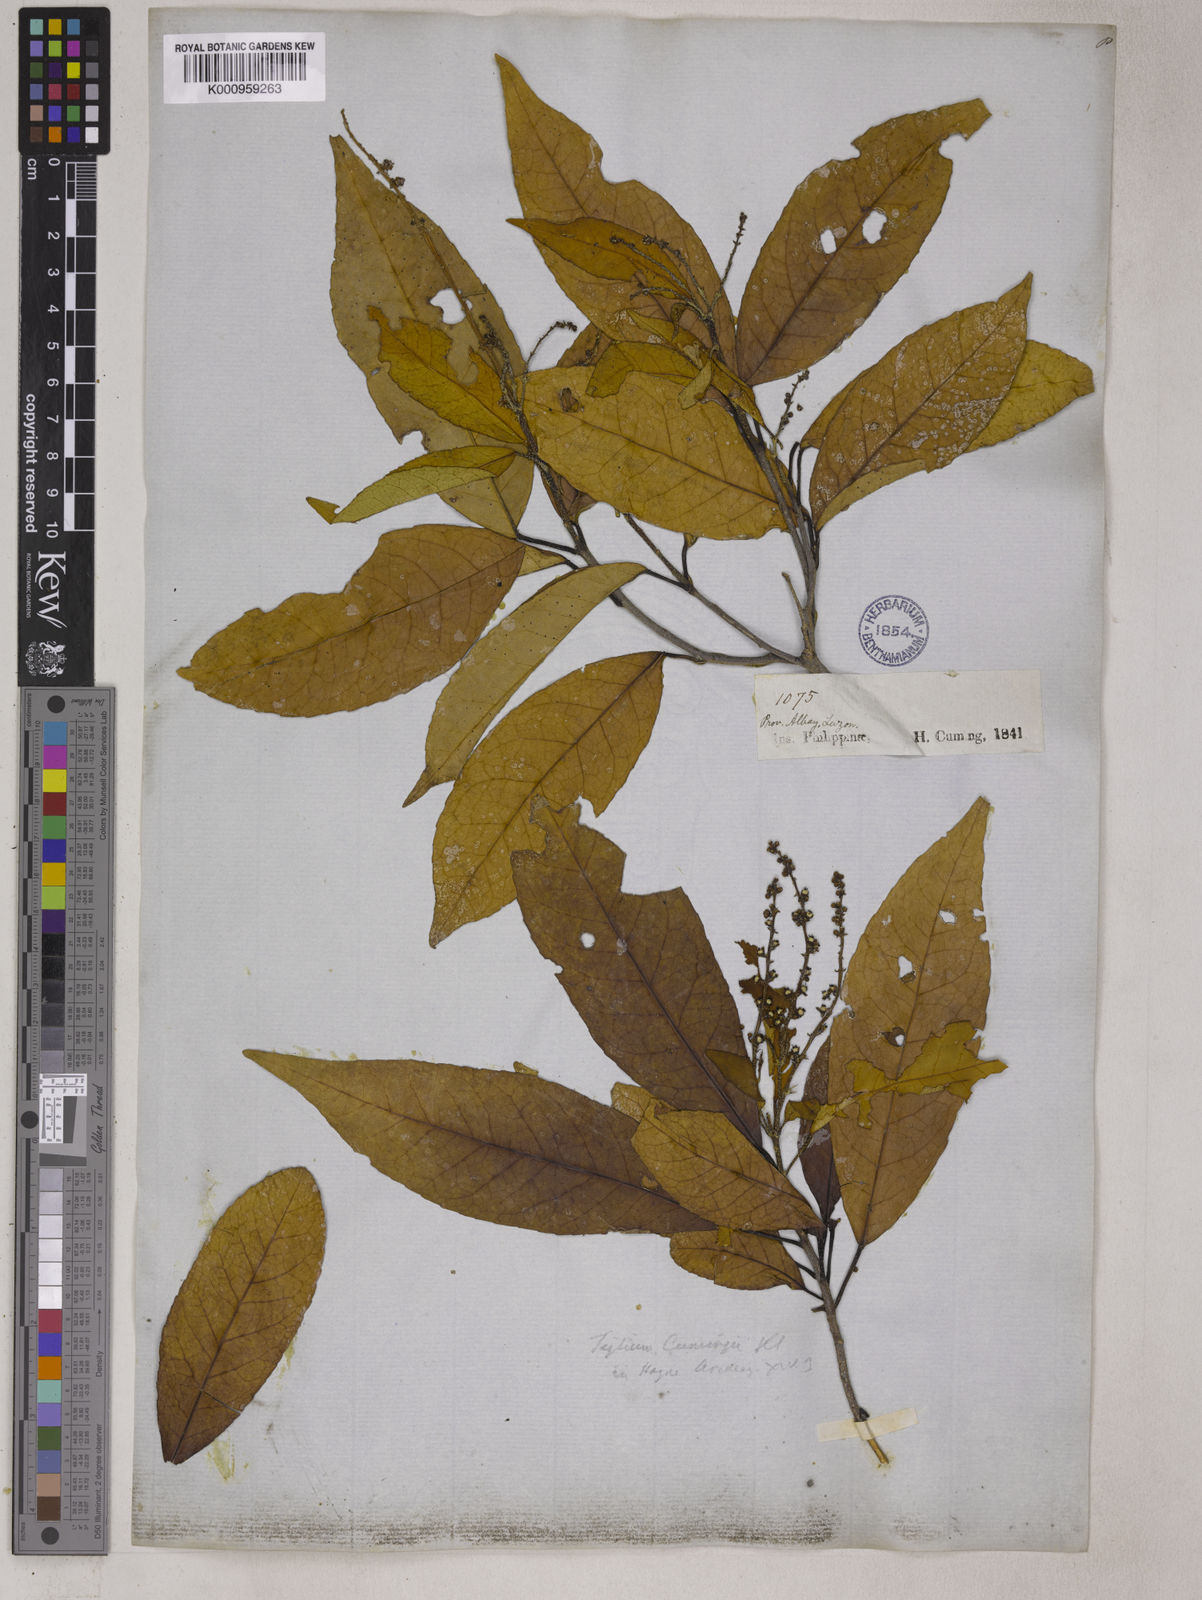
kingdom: Plantae
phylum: Tracheophyta
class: Magnoliopsida
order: Malpighiales
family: Euphorbiaceae
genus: Croton
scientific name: Croton
